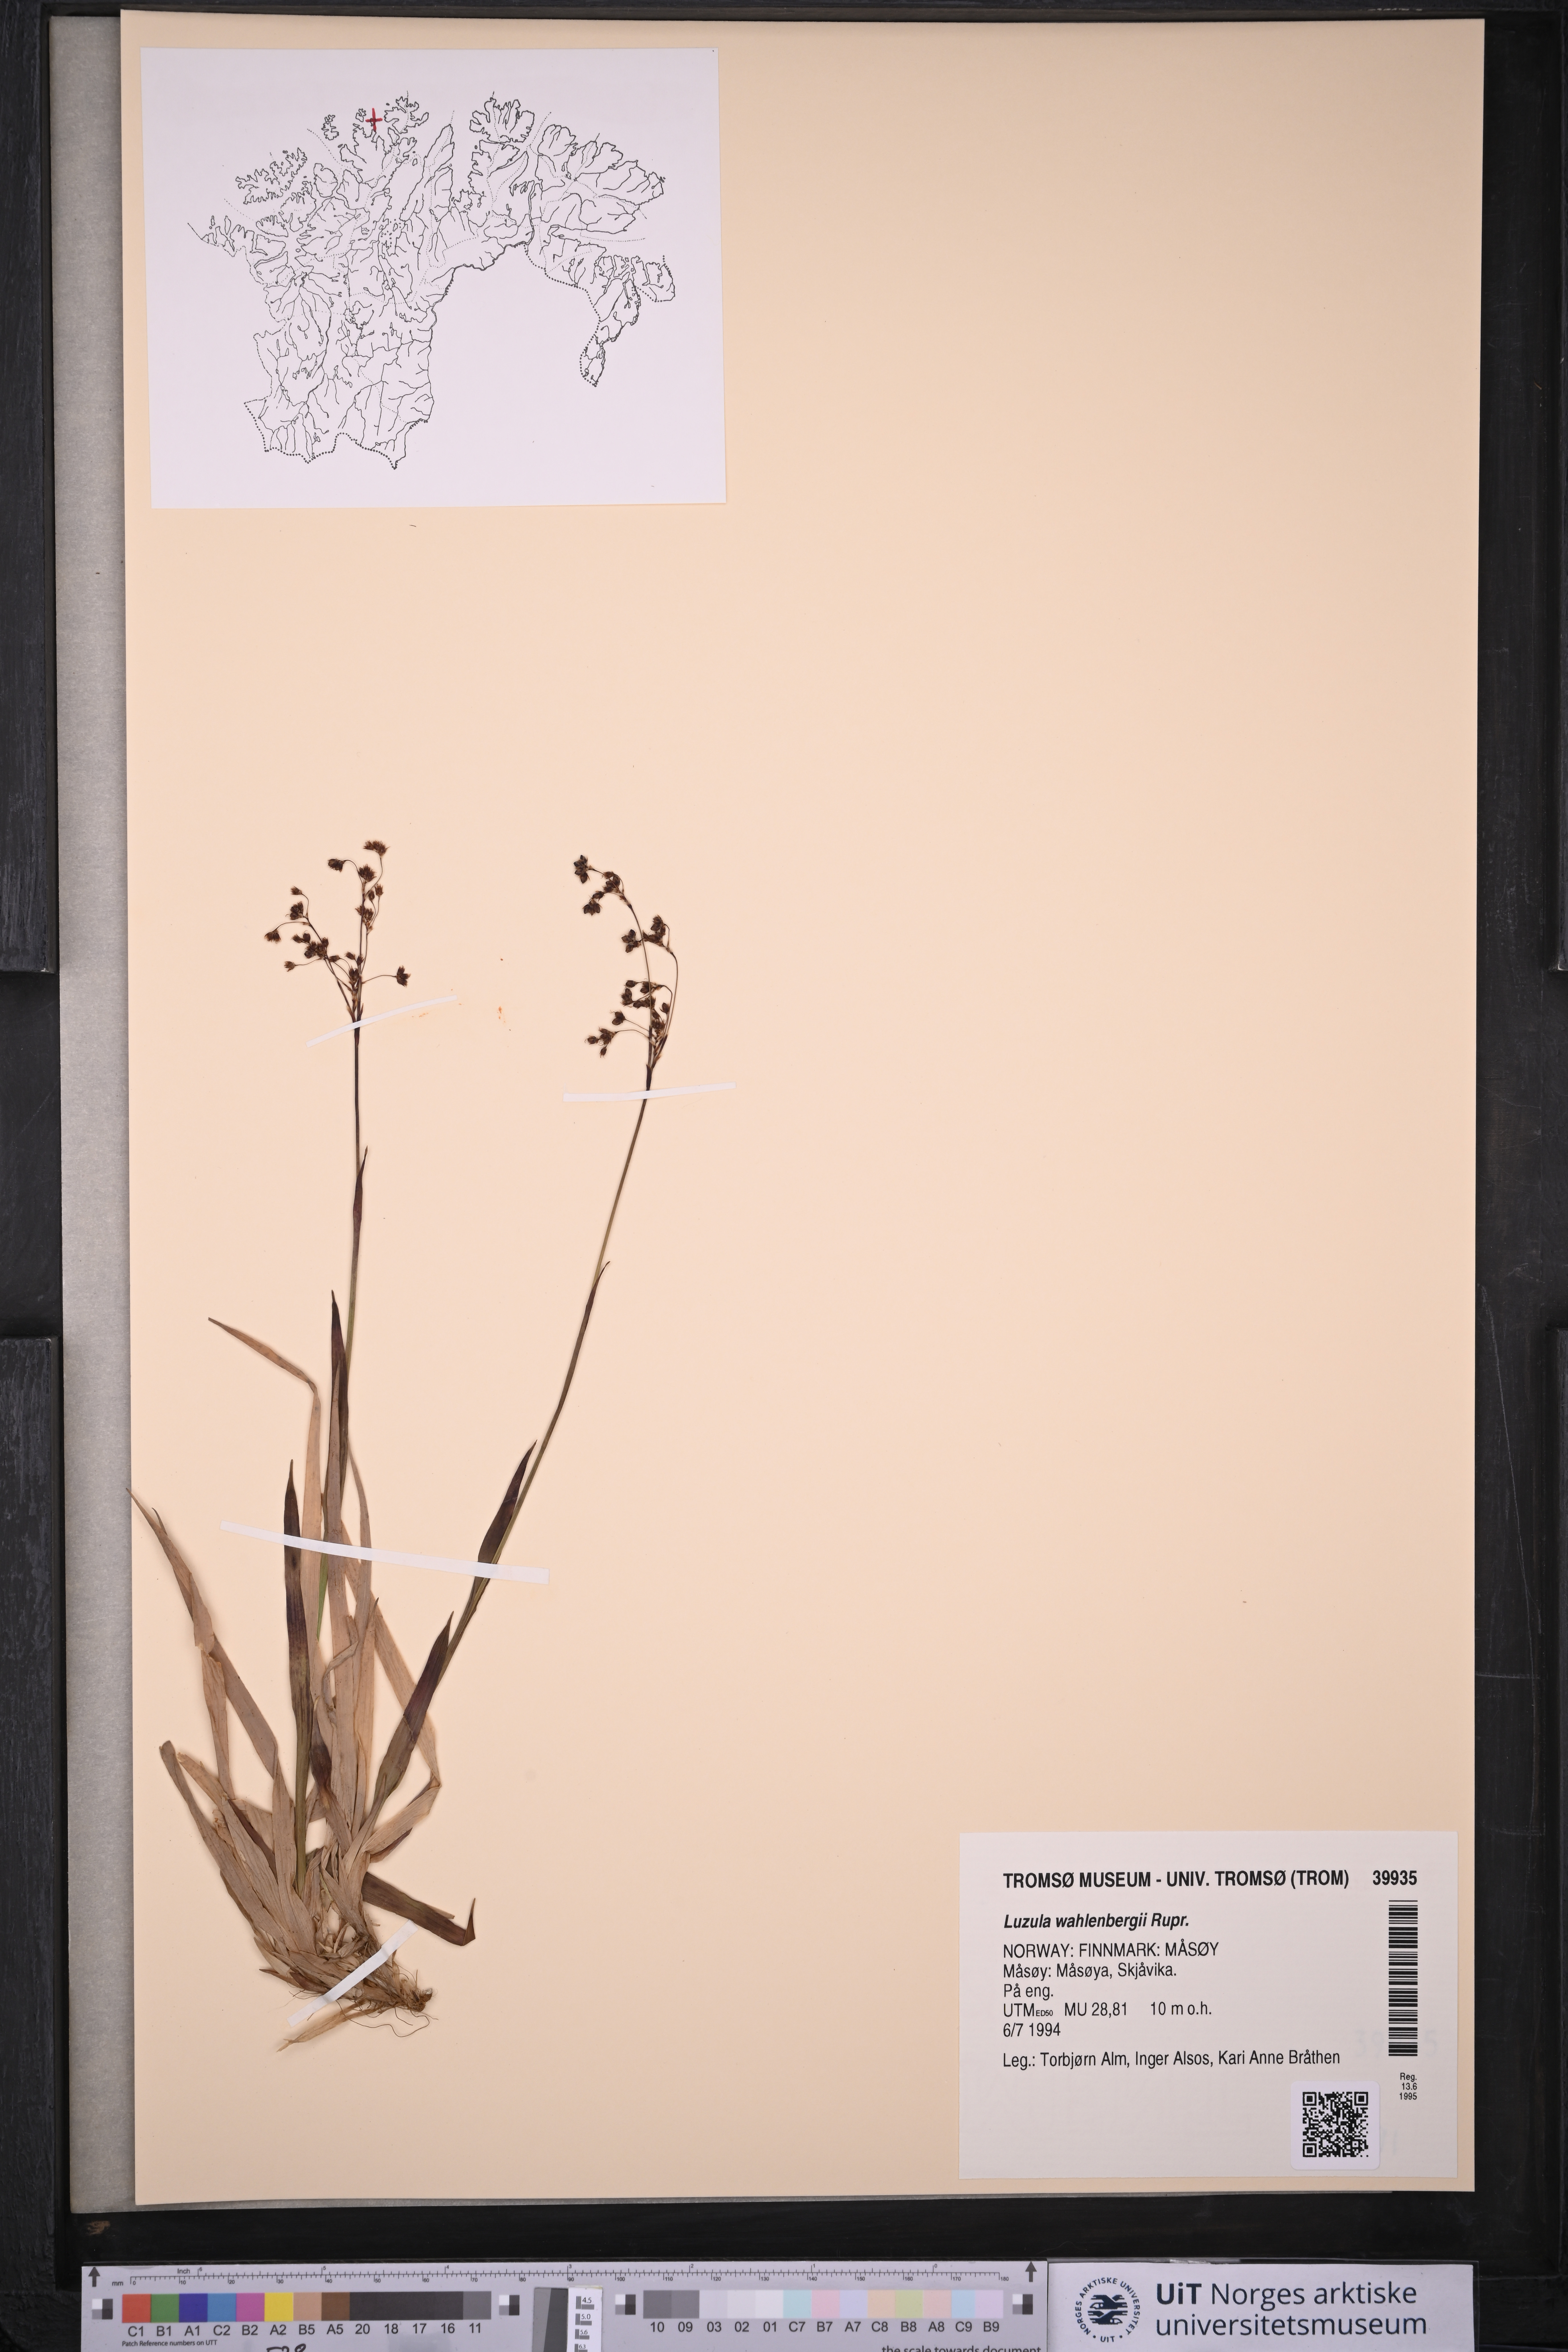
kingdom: Plantae
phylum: Tracheophyta
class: Liliopsida
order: Poales
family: Juncaceae
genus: Luzula
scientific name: Luzula wahlenbergii
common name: Wahlenberg's wood-rush
